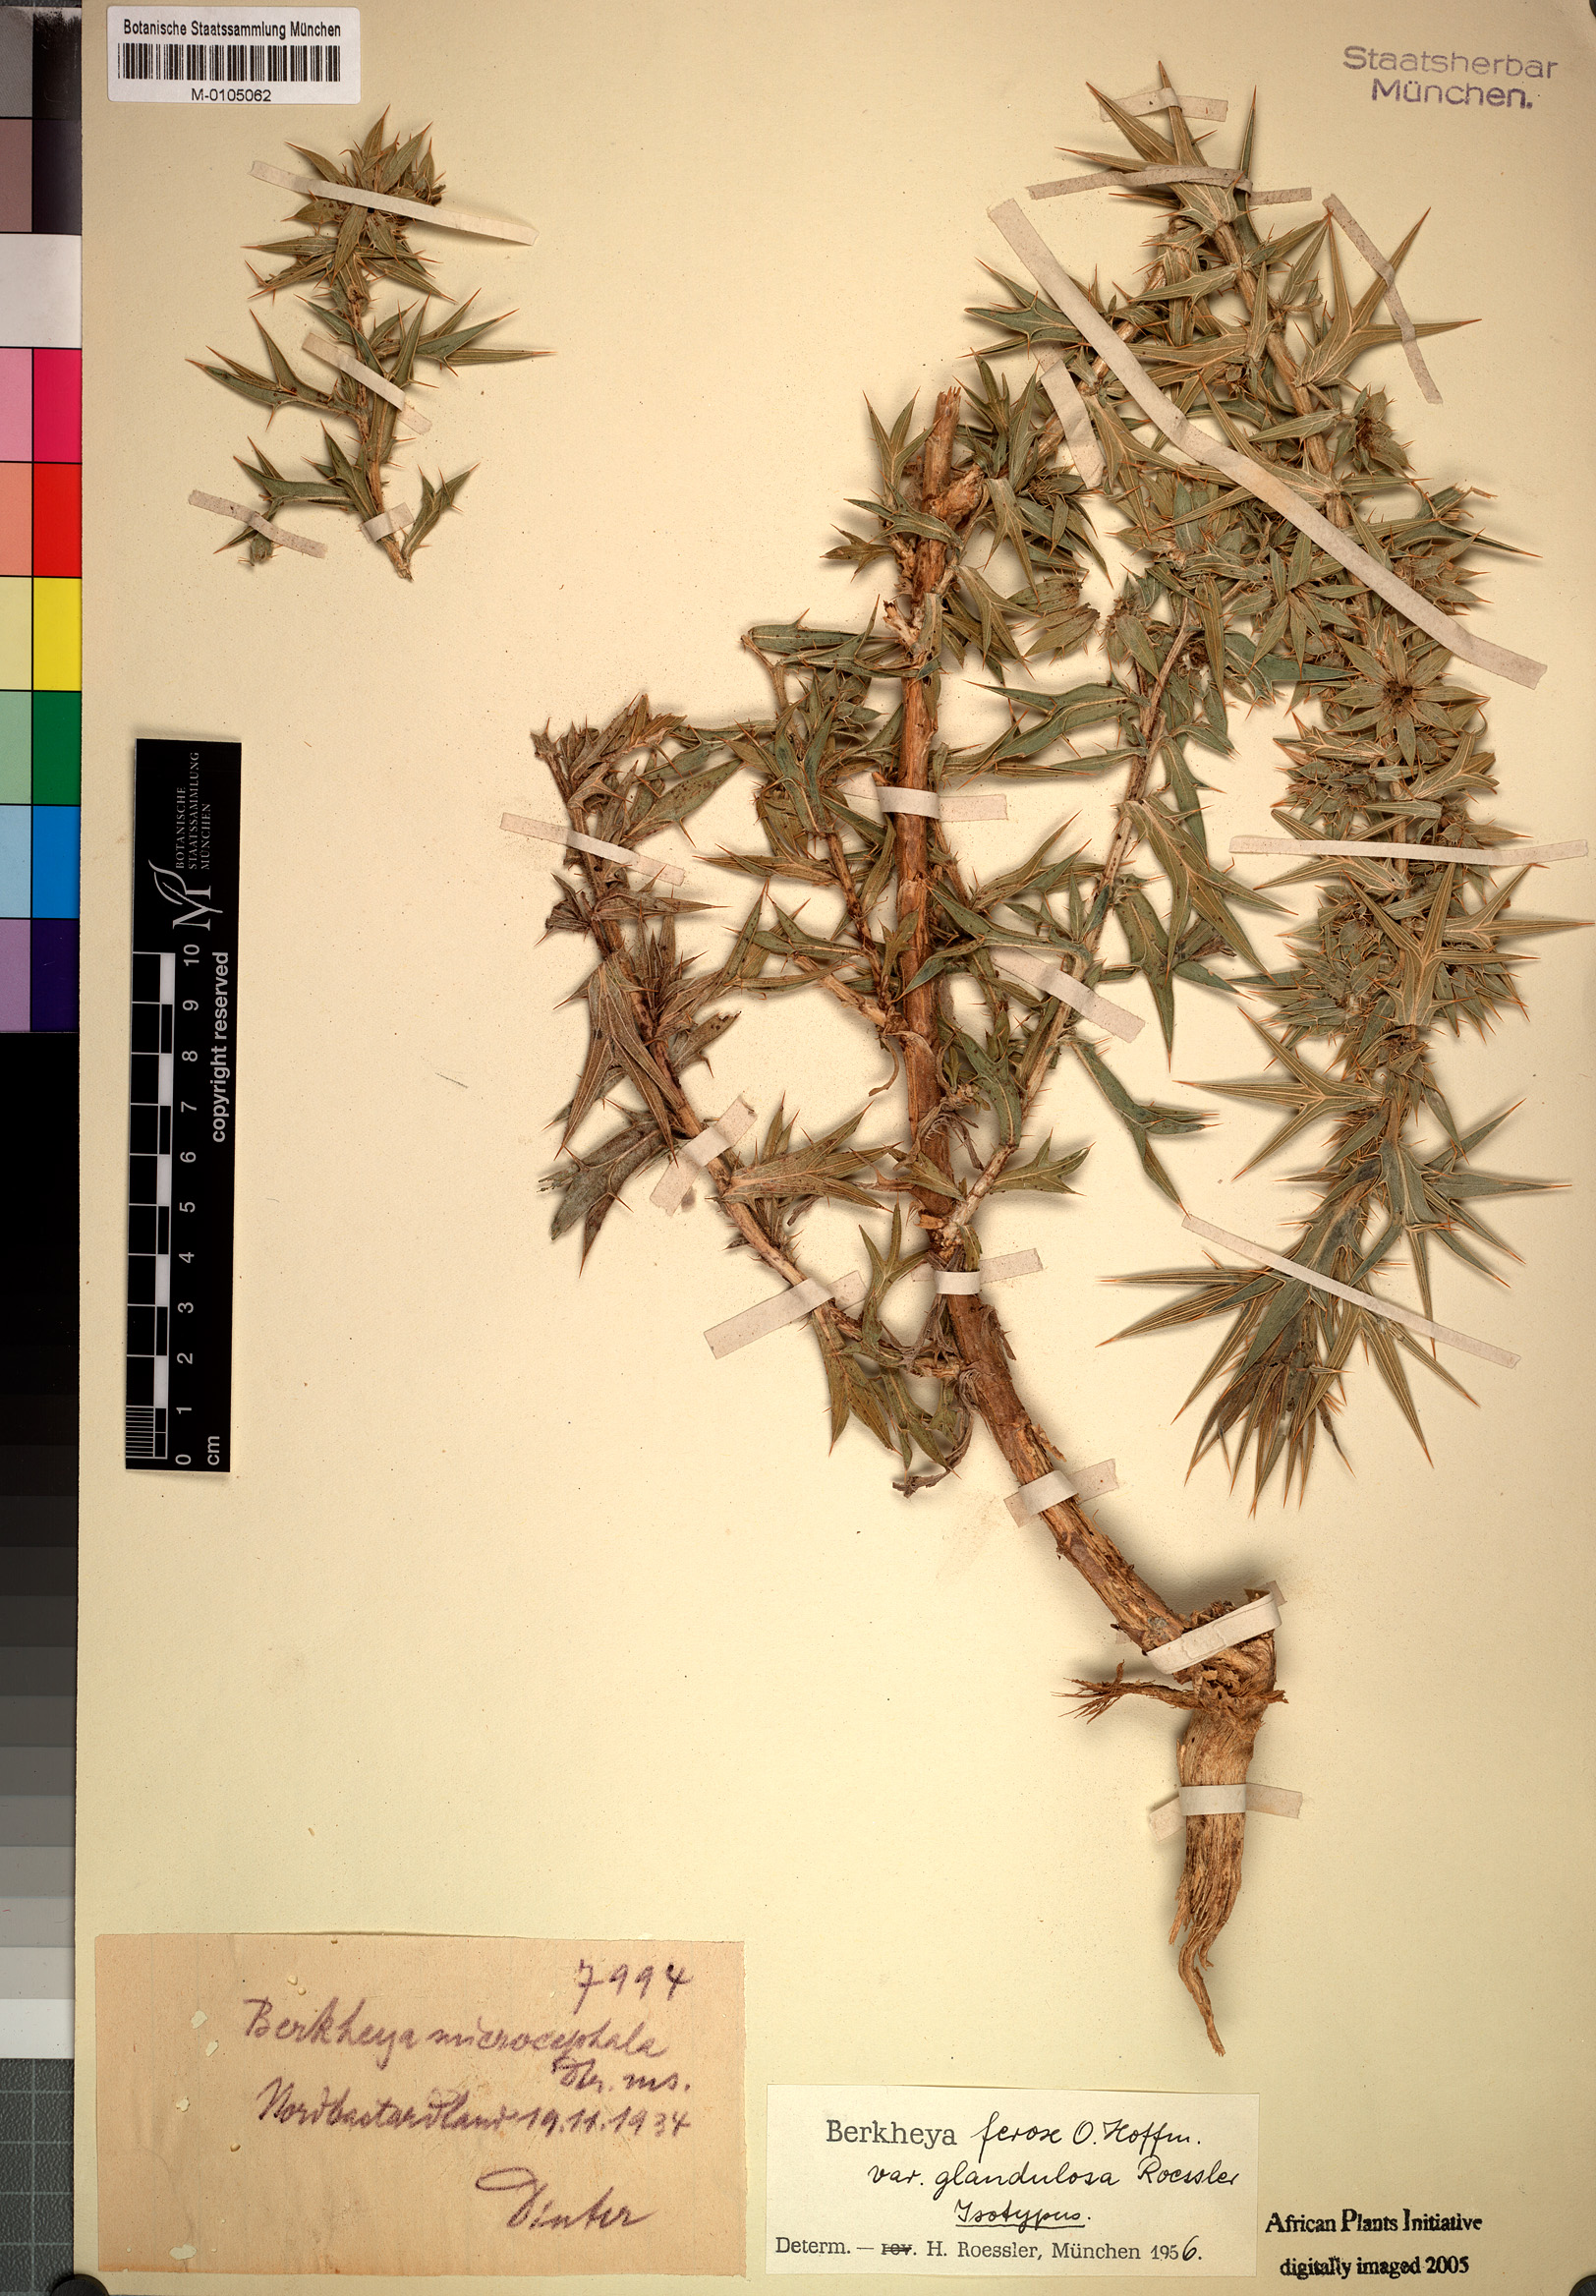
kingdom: Plantae
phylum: Tracheophyta
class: Magnoliopsida
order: Asterales
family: Asteraceae
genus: Berkheya
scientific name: Berkheya ferox
